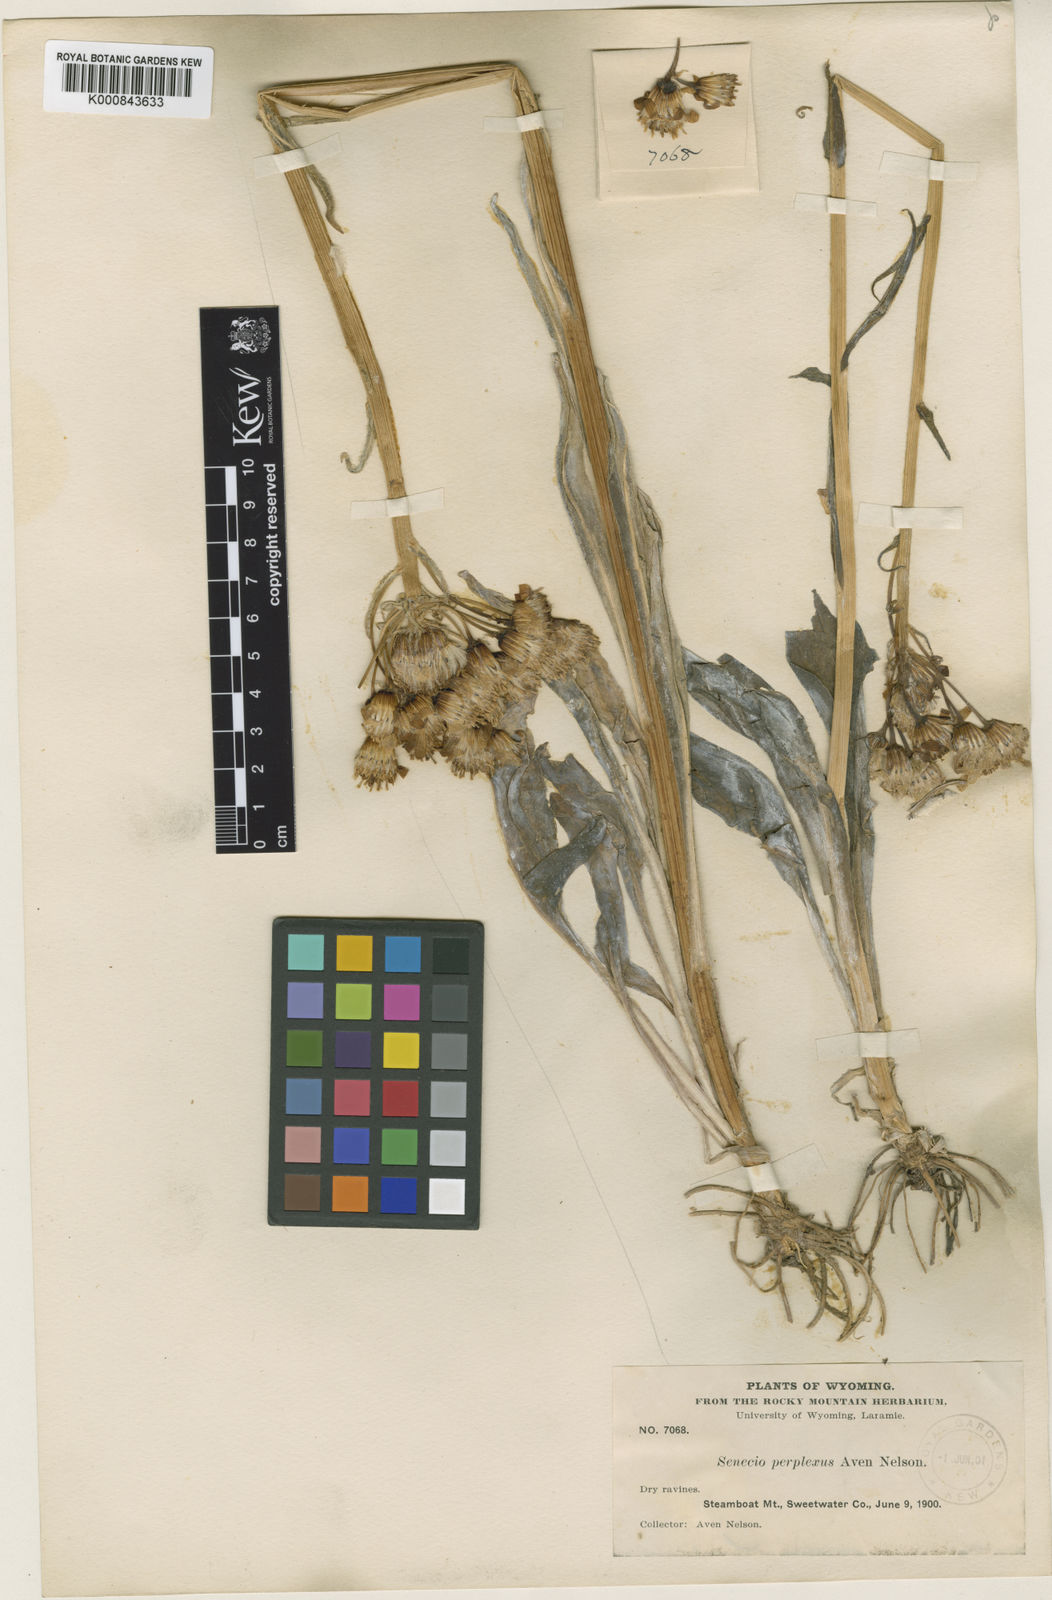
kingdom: Plantae
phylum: Tracheophyta
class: Magnoliopsida
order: Asterales
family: Asteraceae
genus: Senecio
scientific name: Senecio integerrimus
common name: Gaugeplant
